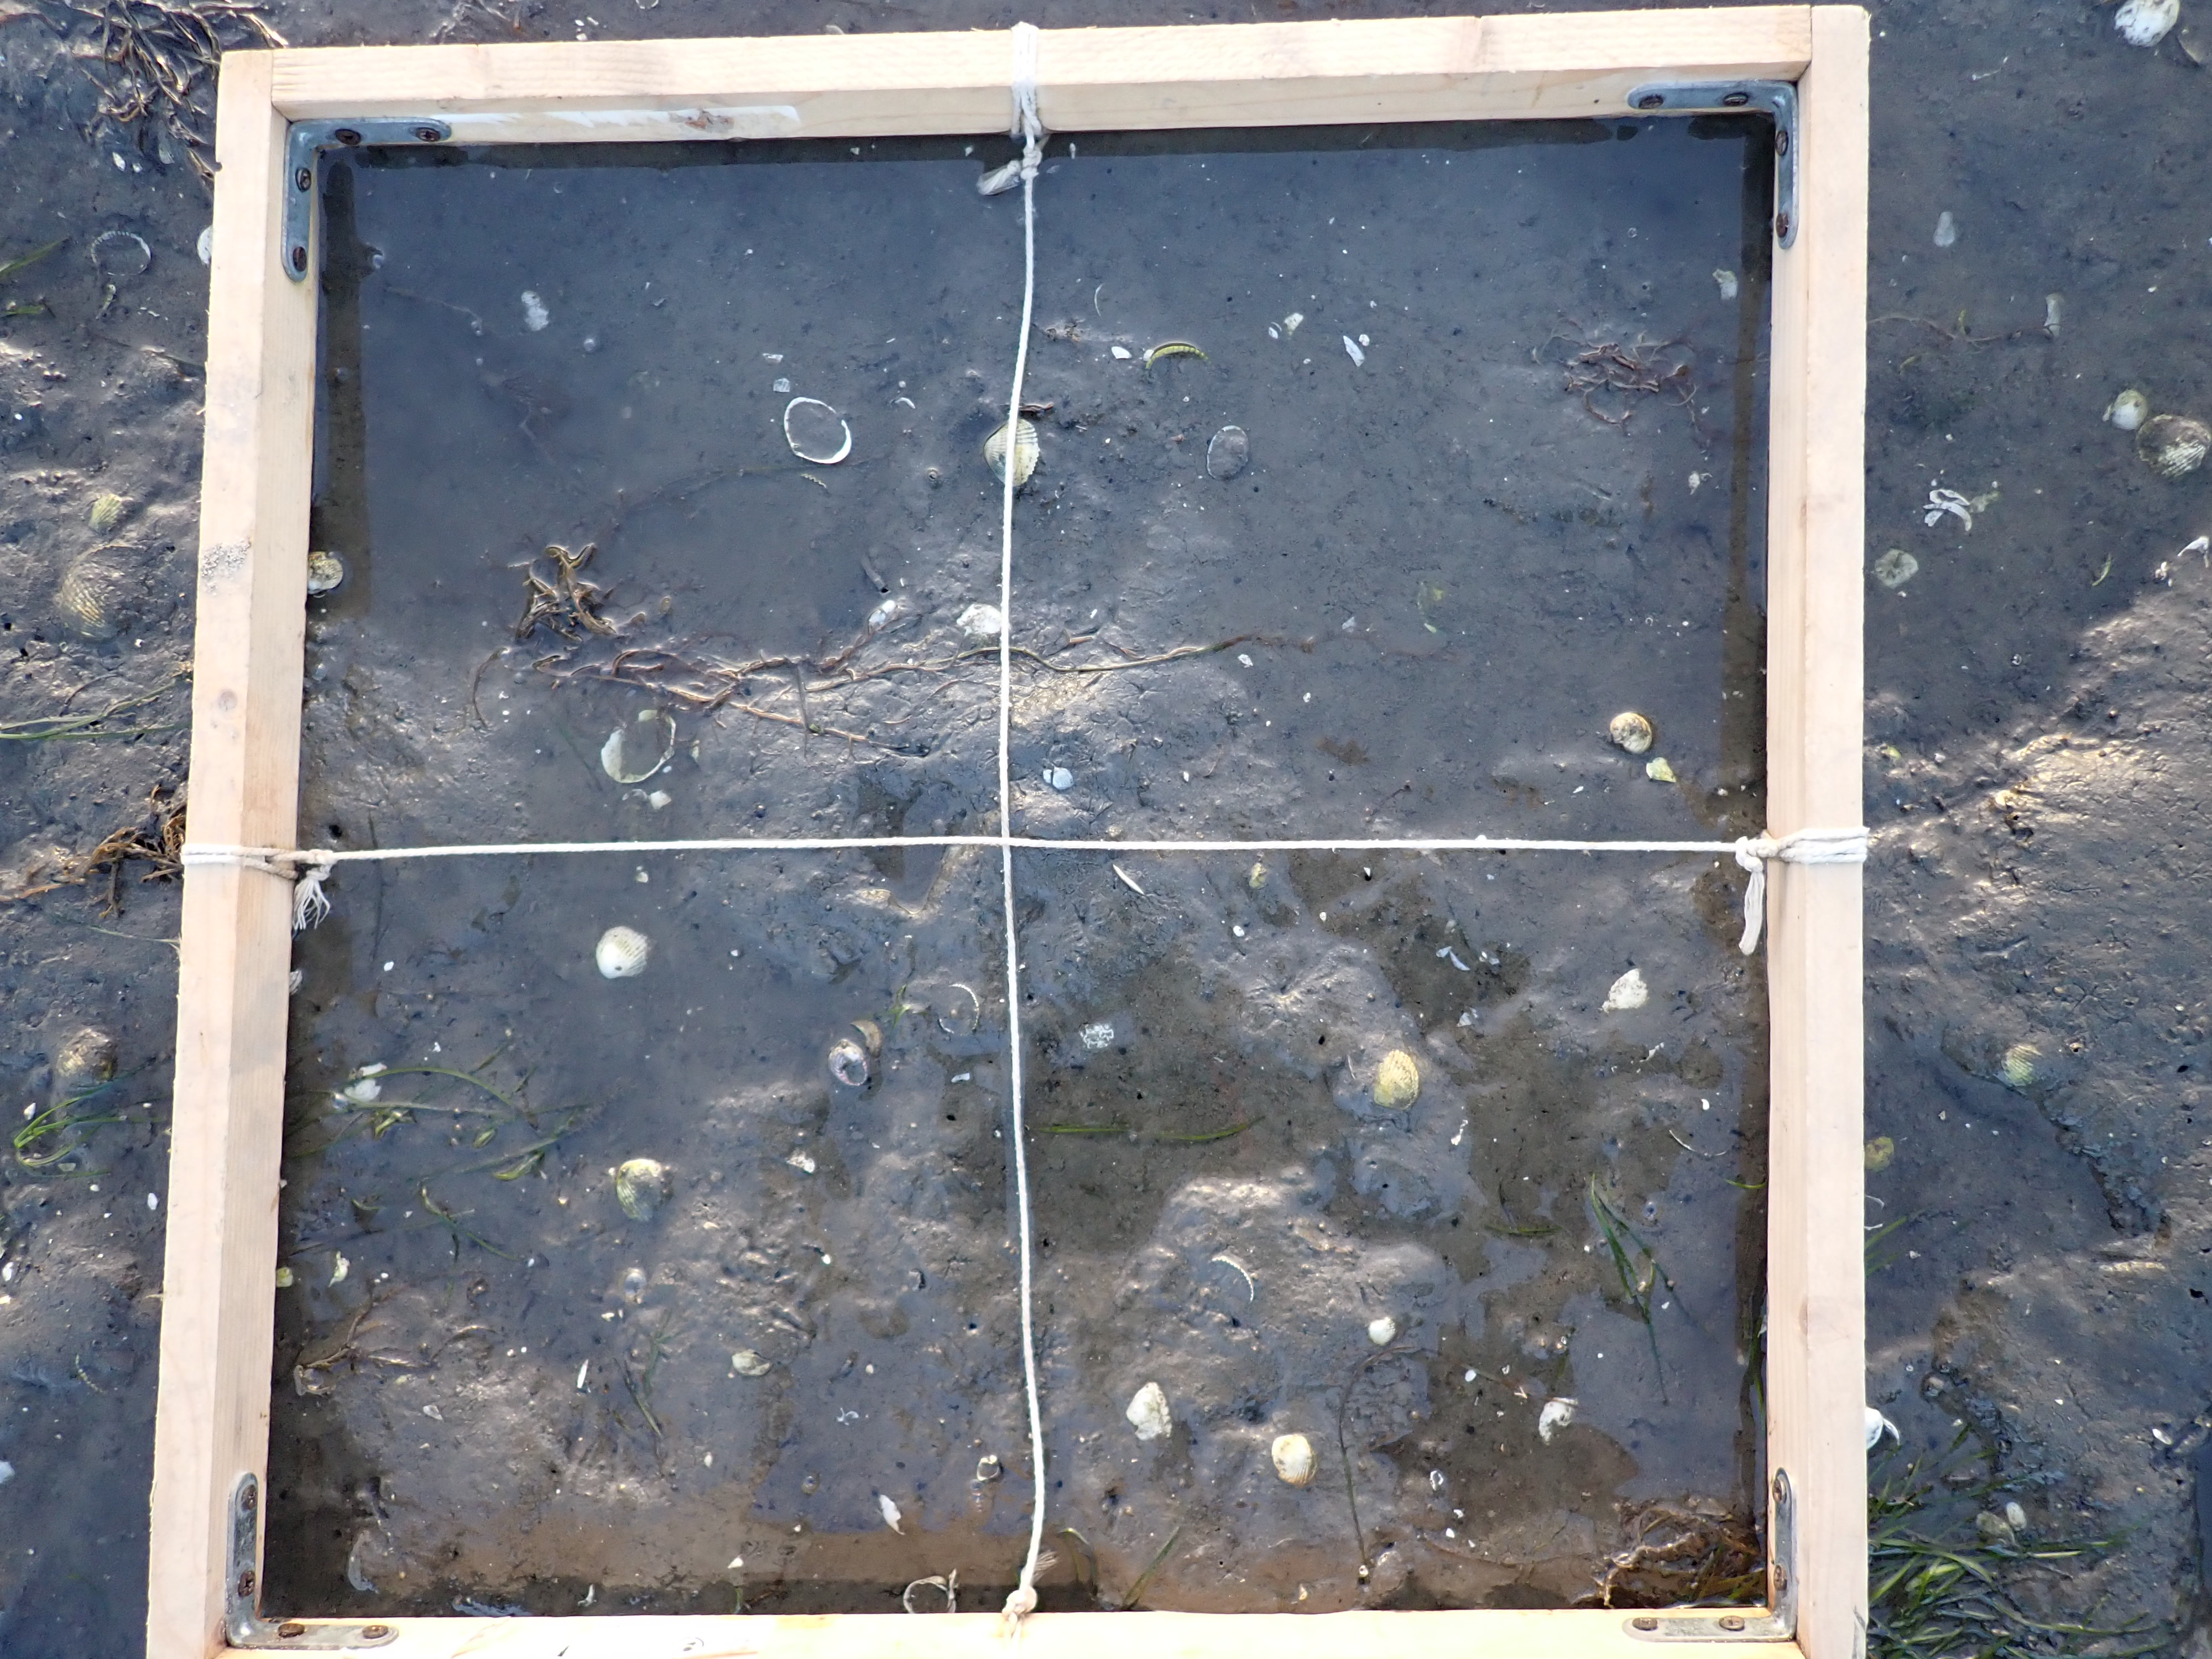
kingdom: Plantae
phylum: Tracheophyta
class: Liliopsida
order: Alismatales
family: Zosteraceae
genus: Zostera
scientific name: Zostera noltii
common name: Dwarf eelgrass
